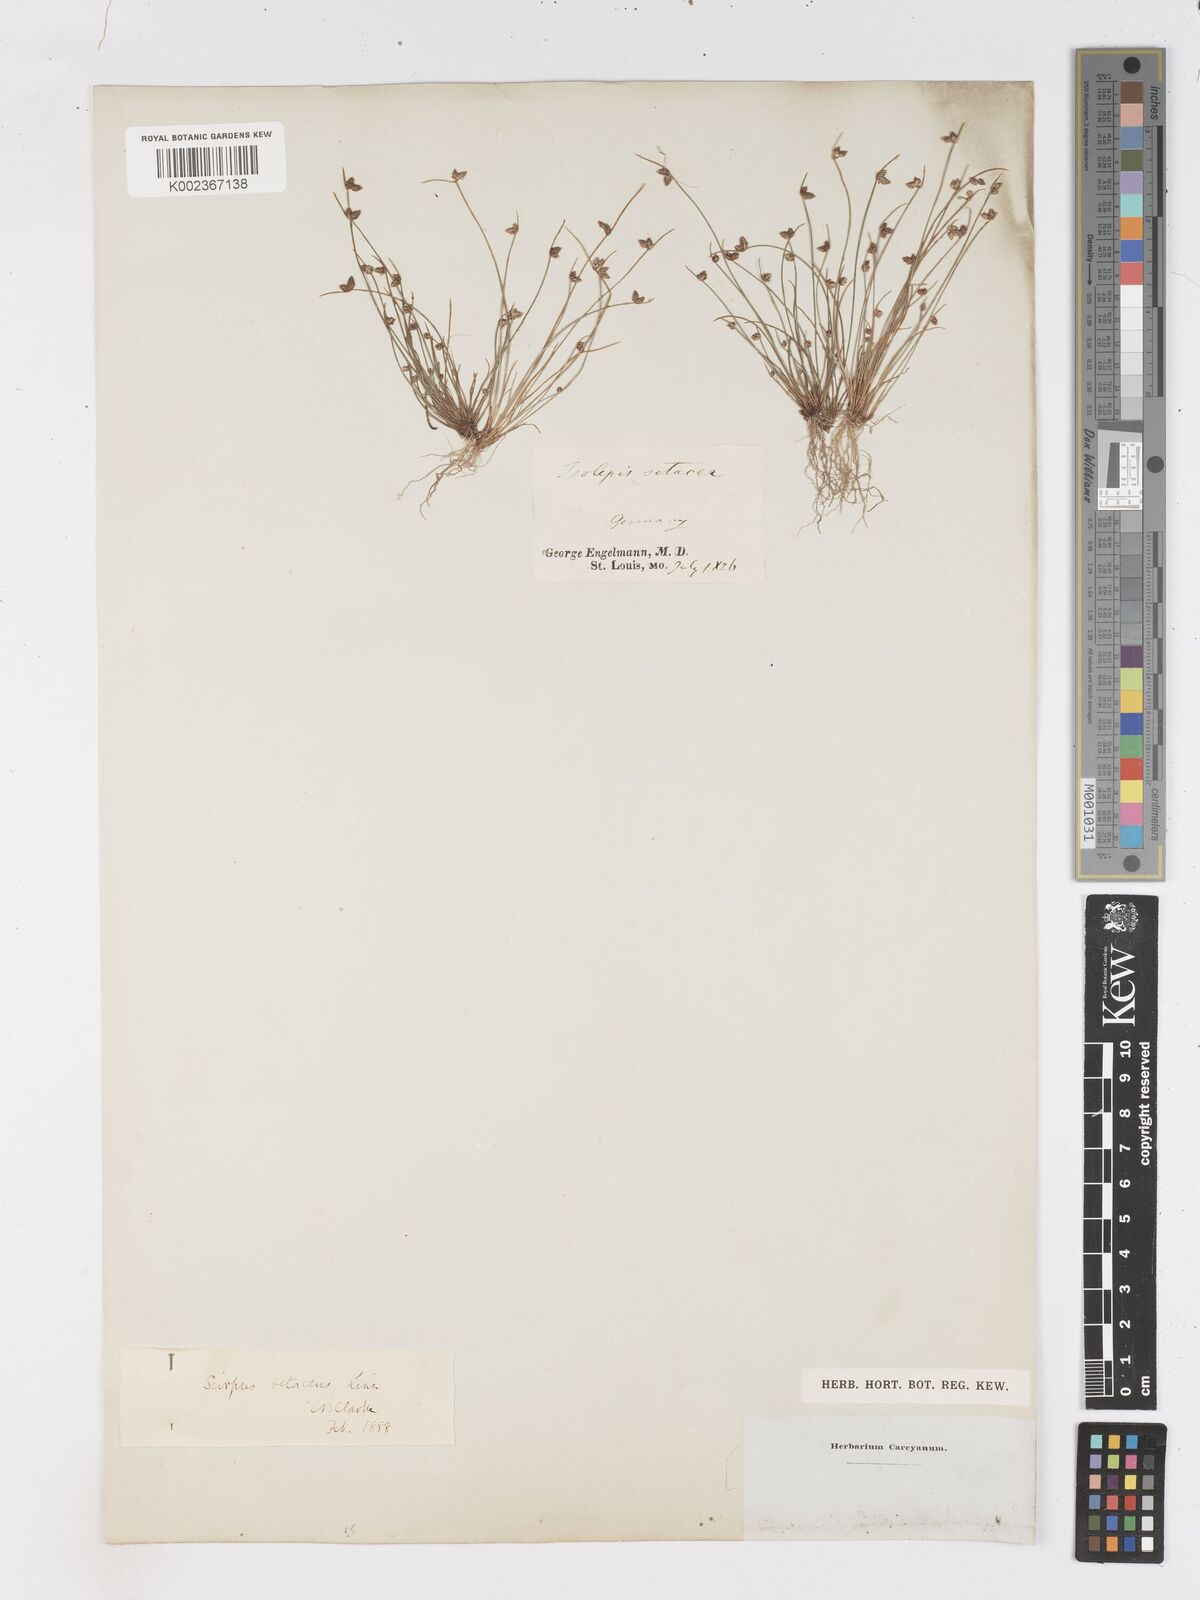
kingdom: Plantae
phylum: Tracheophyta
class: Liliopsida
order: Poales
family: Cyperaceae
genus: Isolepis
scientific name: Isolepis setacea
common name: Bristle club-rush
